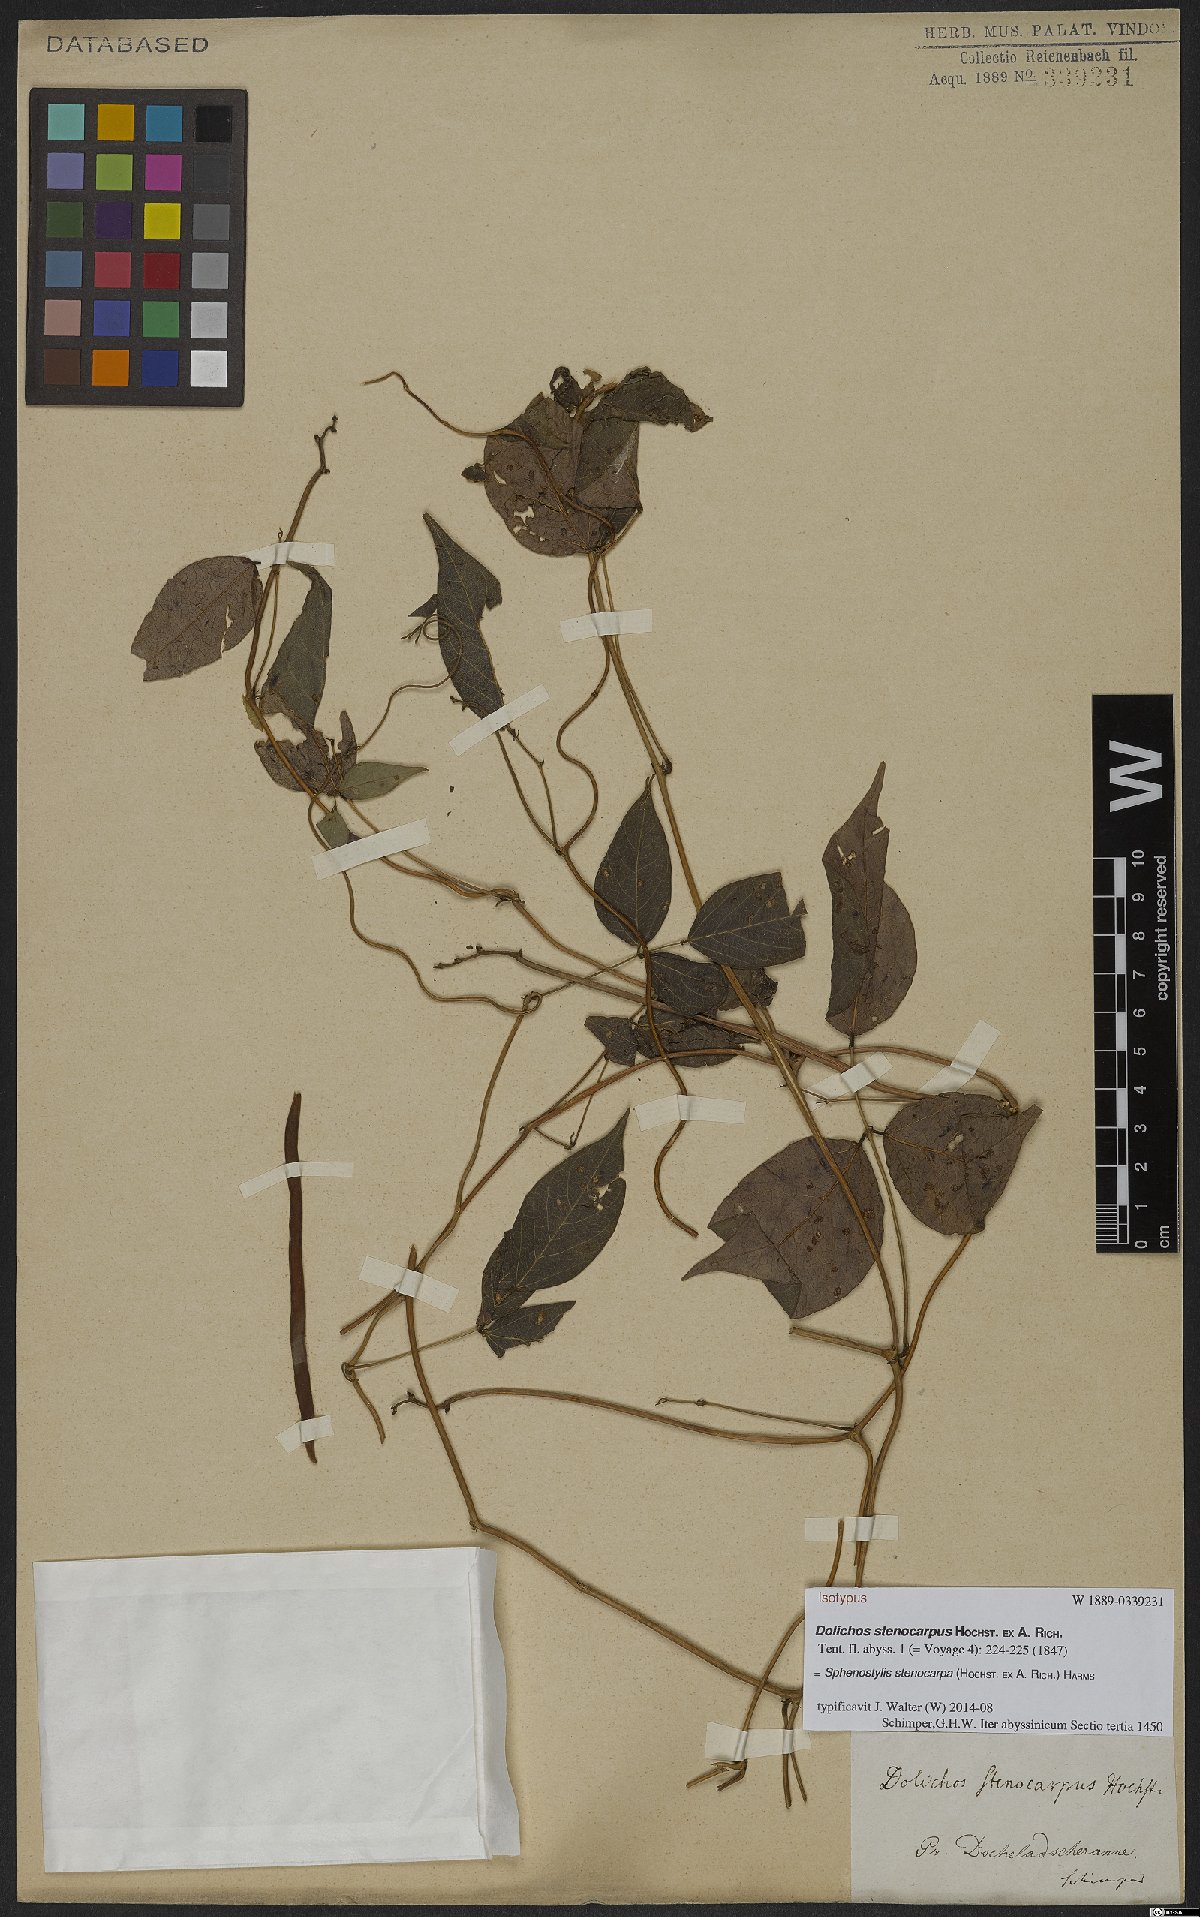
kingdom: Plantae
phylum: Tracheophyta
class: Magnoliopsida
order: Fabales
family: Fabaceae
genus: Sphenostylis
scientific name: Sphenostylis stenocarpa
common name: Yam-pea
